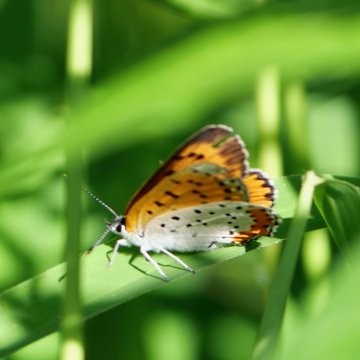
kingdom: Animalia
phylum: Arthropoda
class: Insecta
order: Lepidoptera
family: Sesiidae
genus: Sesia
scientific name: Sesia Lycaena hyllus
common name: Bronze Copper
